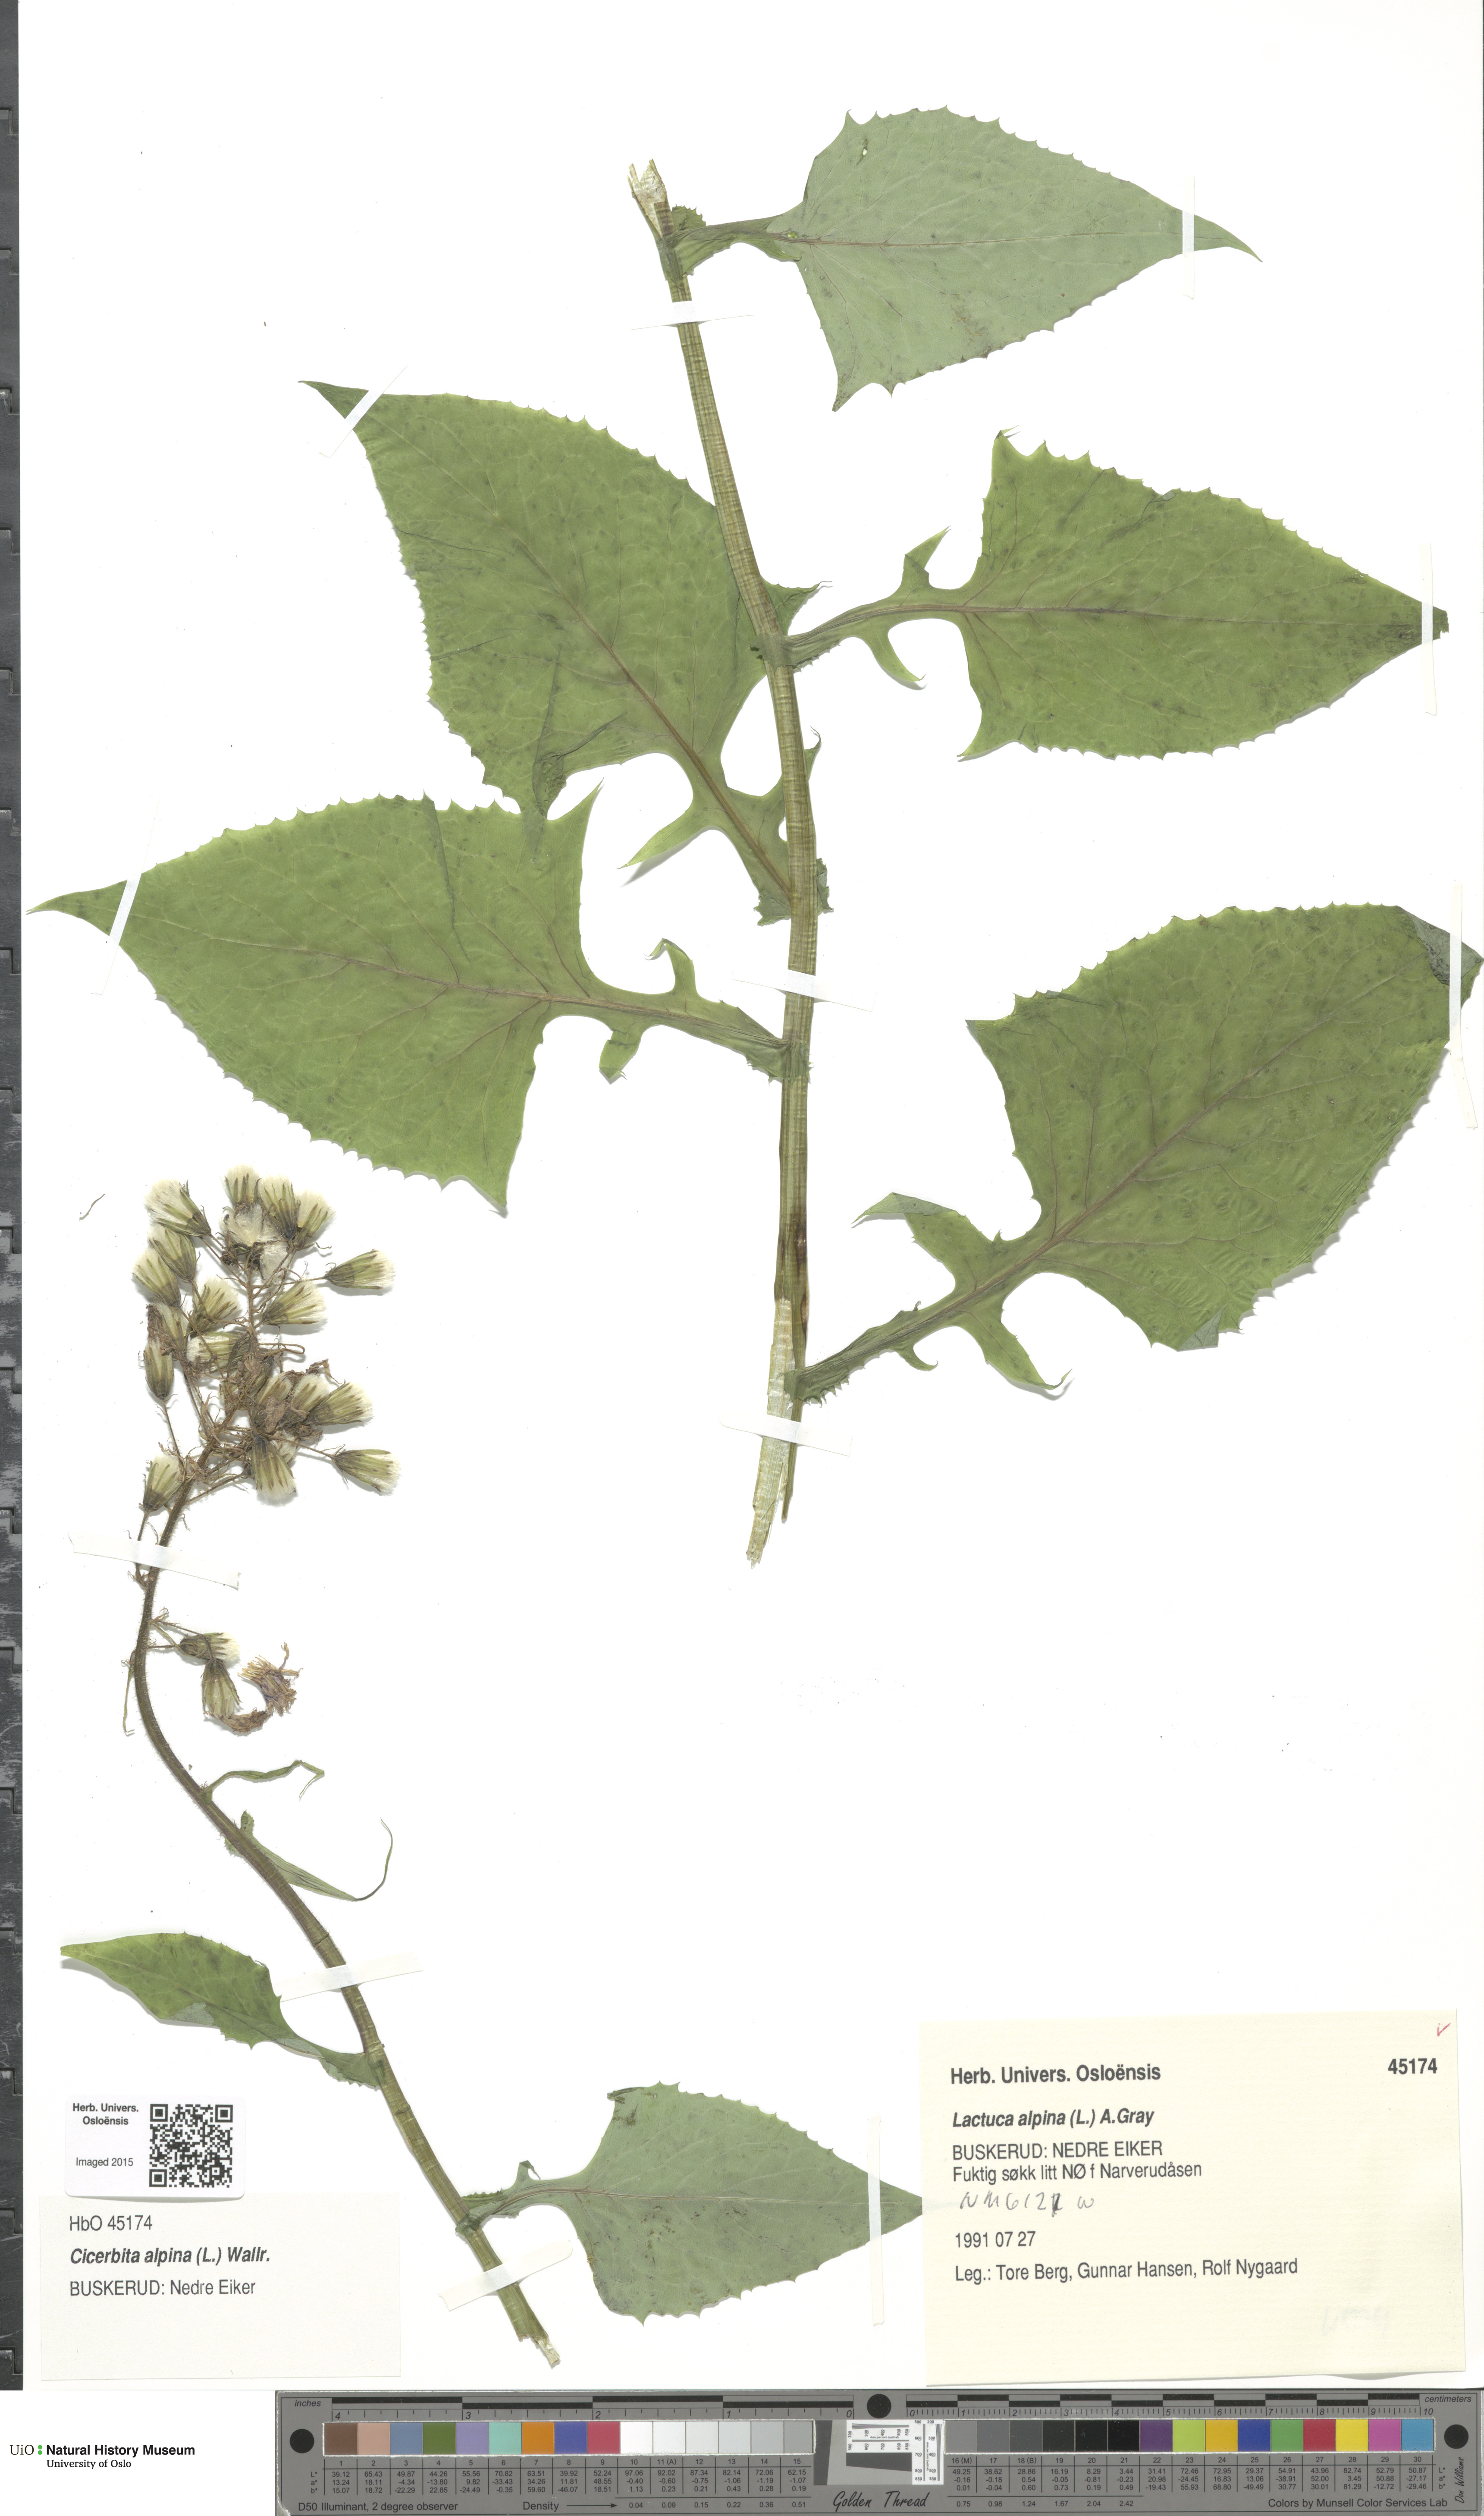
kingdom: Plantae
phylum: Tracheophyta
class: Magnoliopsida
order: Asterales
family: Asteraceae
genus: Cicerbita
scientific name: Cicerbita alpina
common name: Alpine blue-sow-thistle
